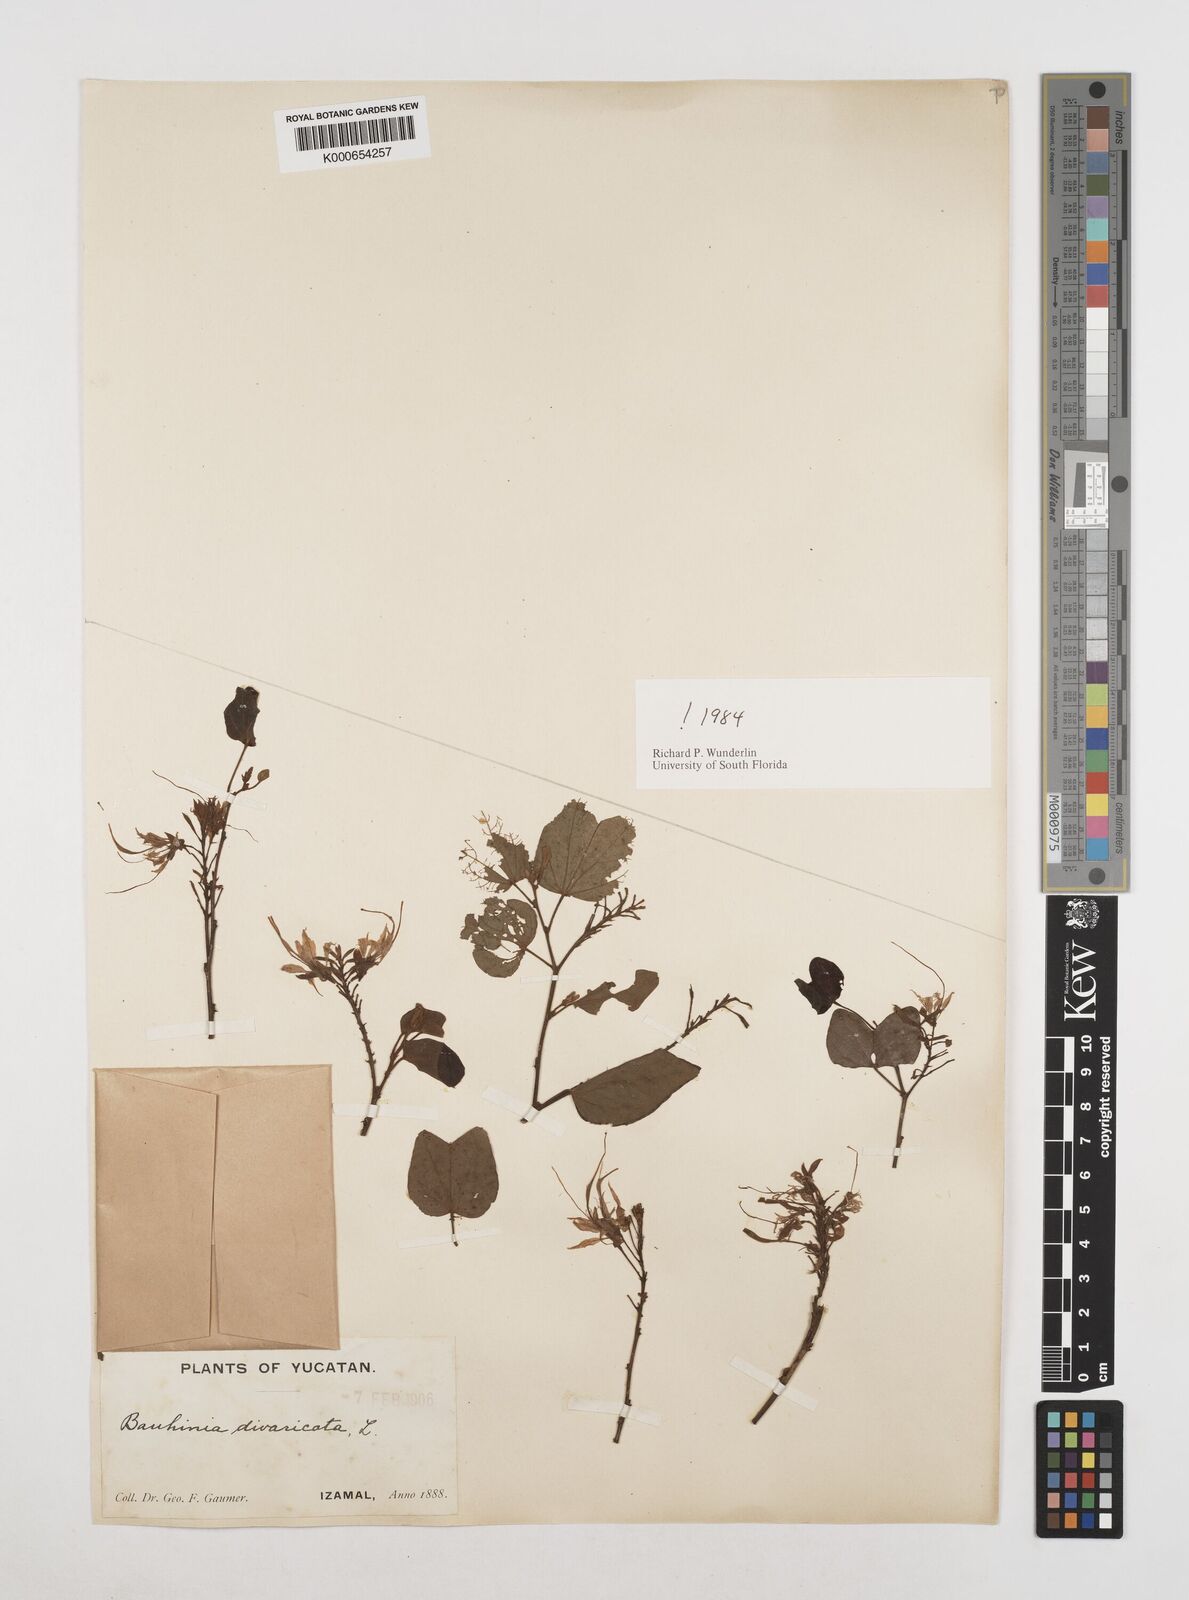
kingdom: Plantae
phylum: Tracheophyta
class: Magnoliopsida
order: Fabales
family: Fabaceae
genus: Bauhinia
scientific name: Bauhinia divaricata
